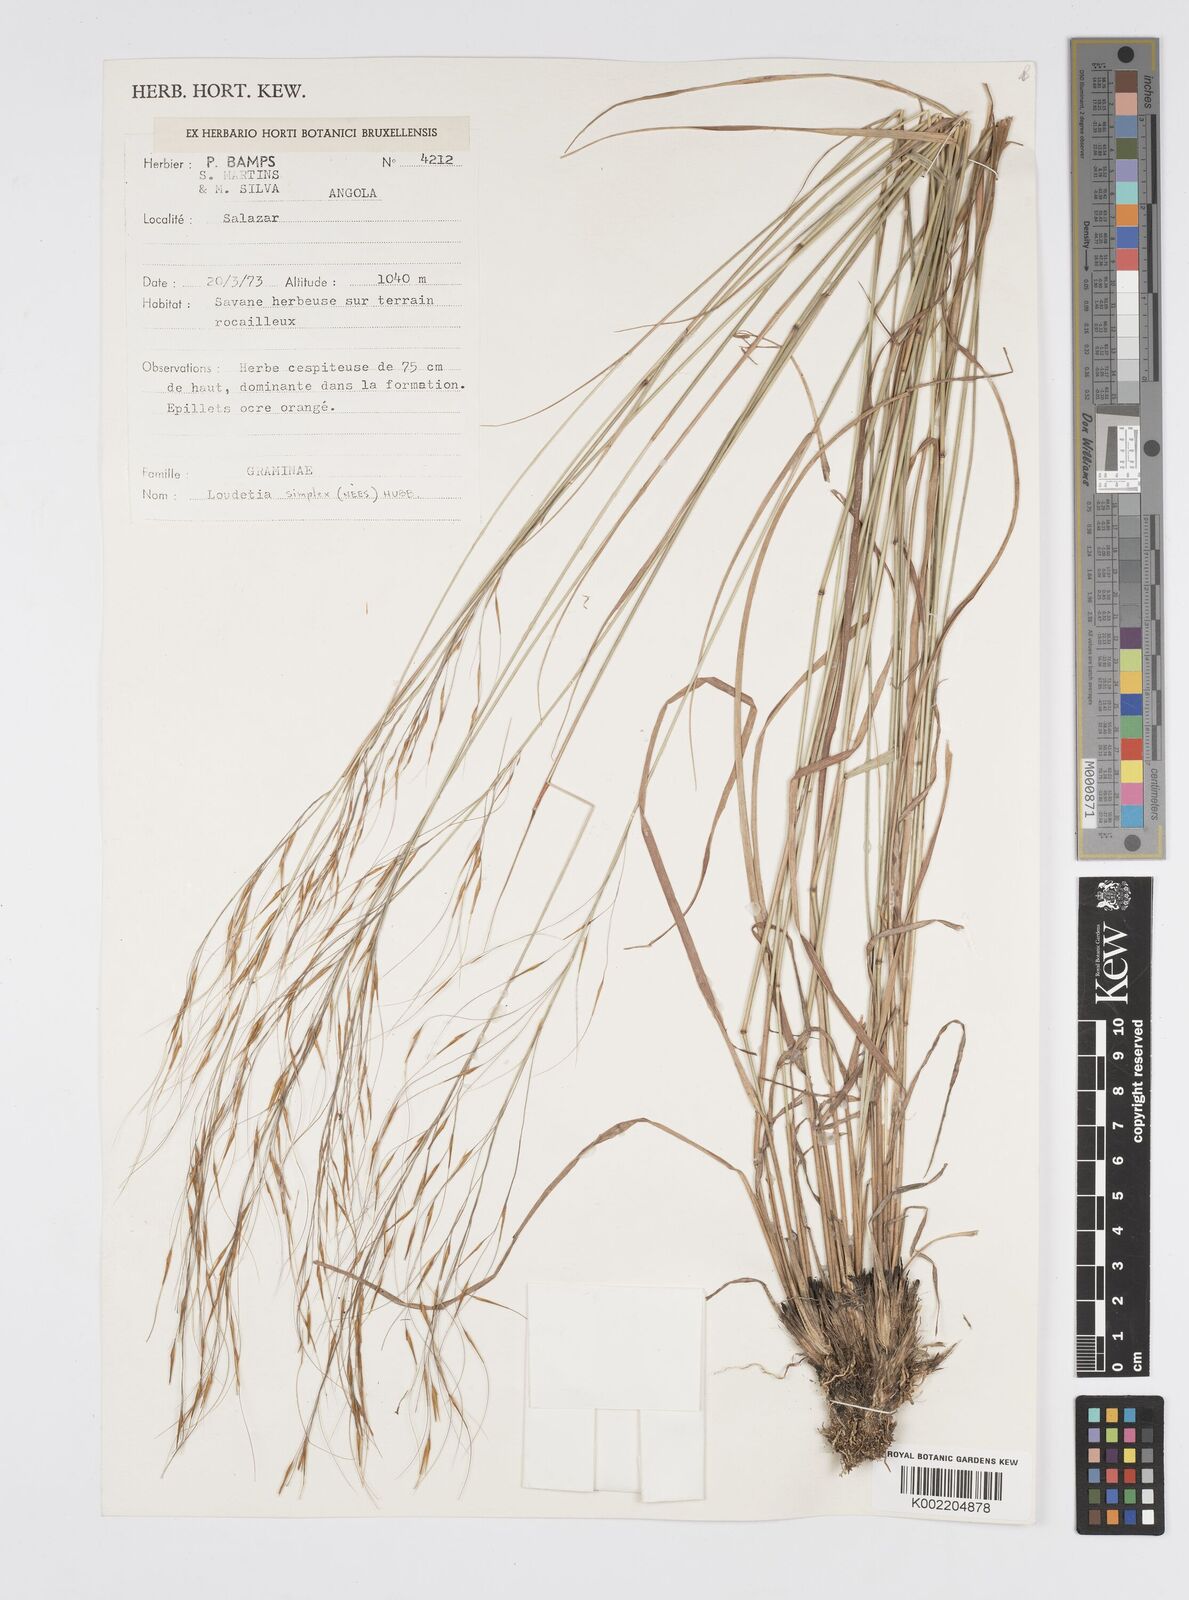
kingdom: Plantae
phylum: Tracheophyta
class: Liliopsida
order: Poales
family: Poaceae
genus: Loudetia
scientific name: Loudetia simplex
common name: Common russet grass
